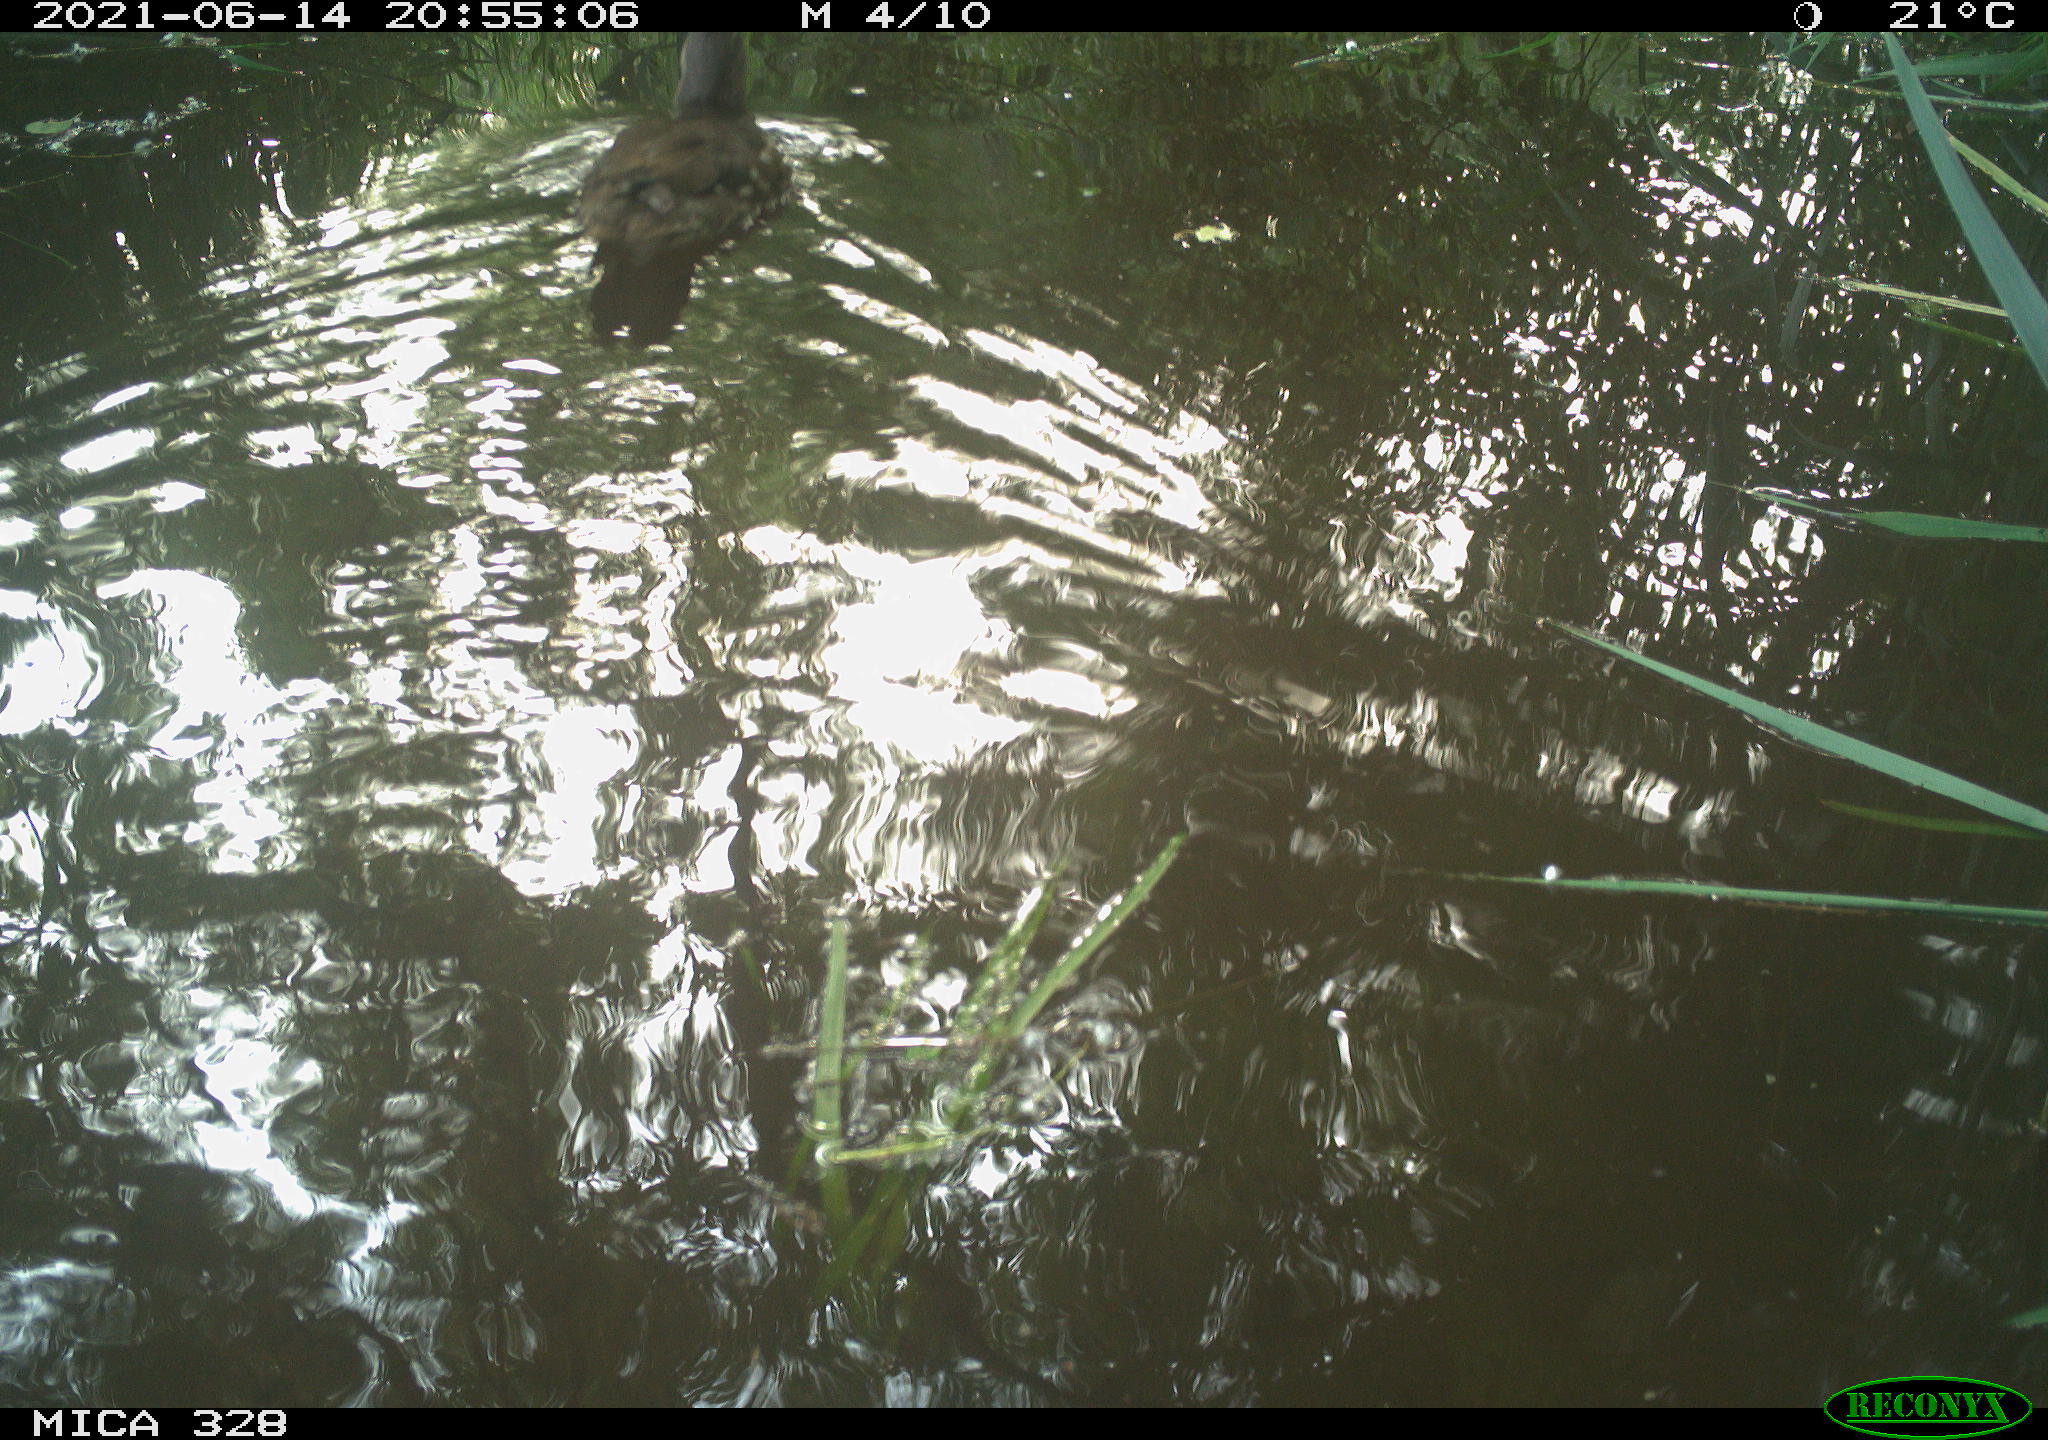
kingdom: Animalia
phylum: Chordata
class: Aves
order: Anseriformes
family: Anatidae
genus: Aix
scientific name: Aix galericulata
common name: Mandarin duck
